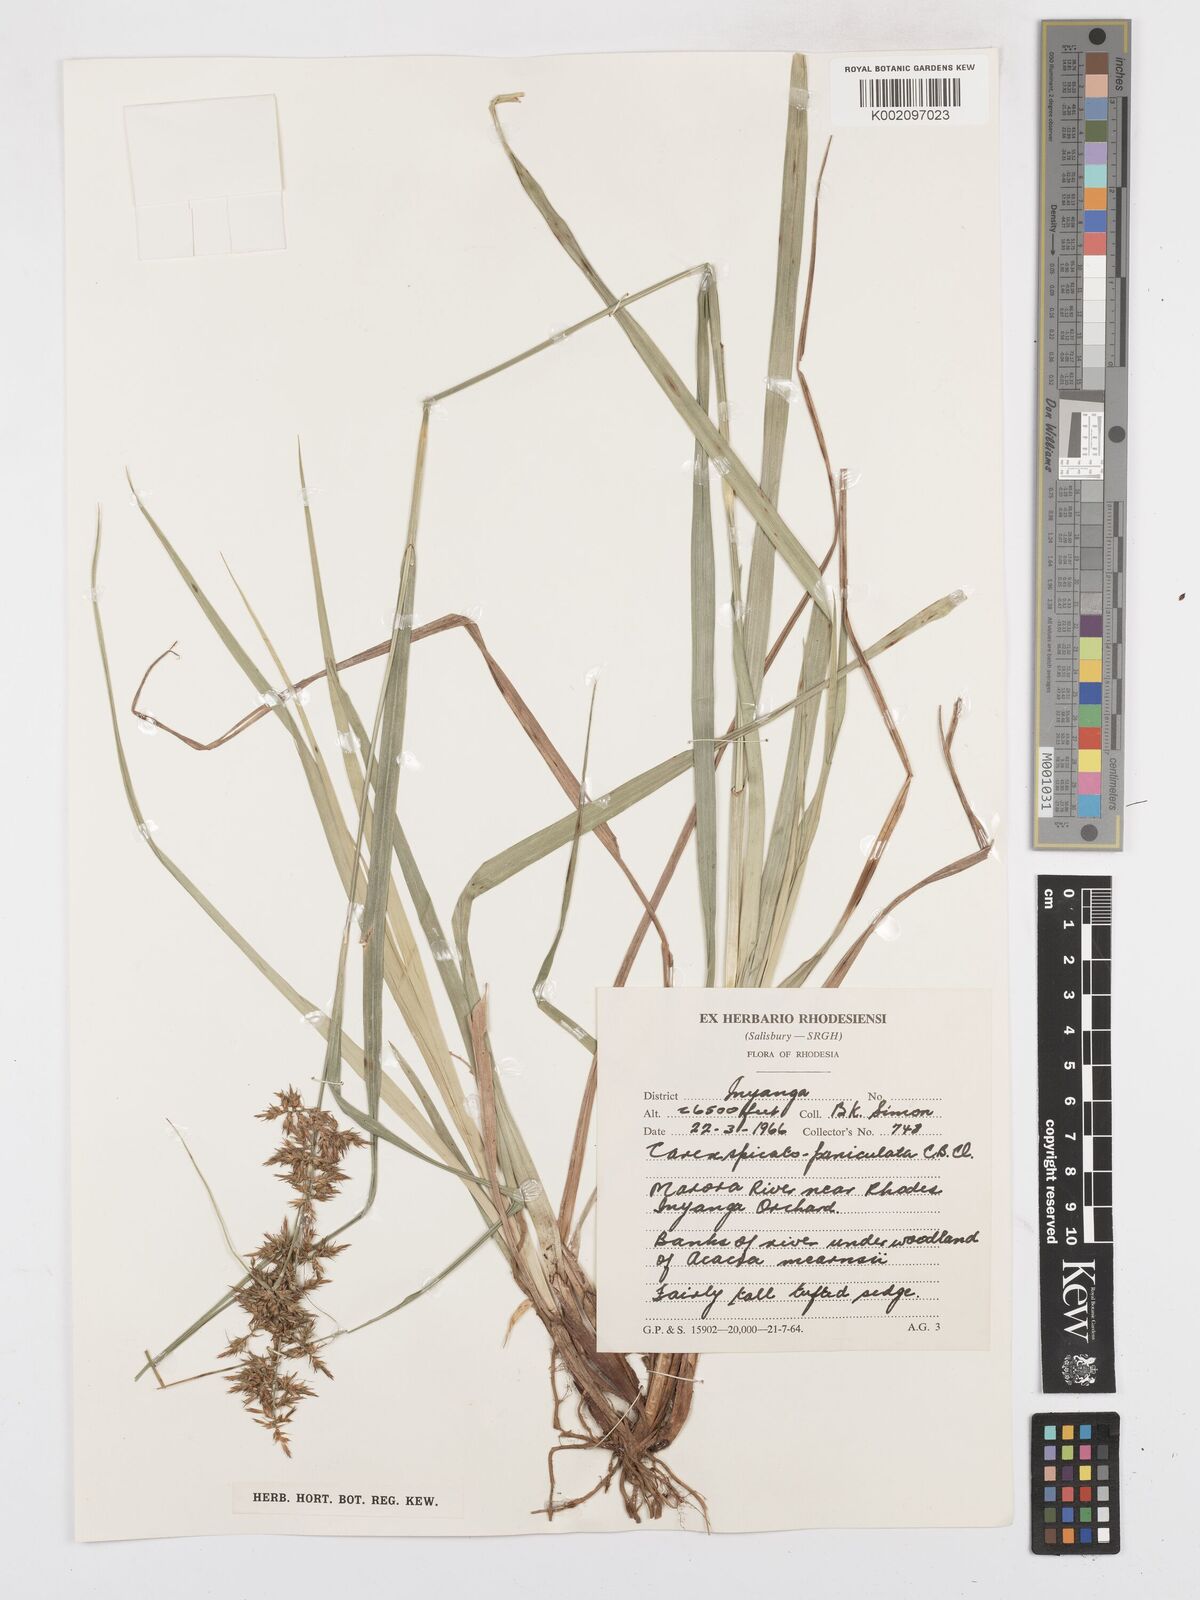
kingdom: Plantae
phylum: Tracheophyta
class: Liliopsida
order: Poales
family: Cyperaceae
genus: Carex
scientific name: Carex spicatopaniculata
